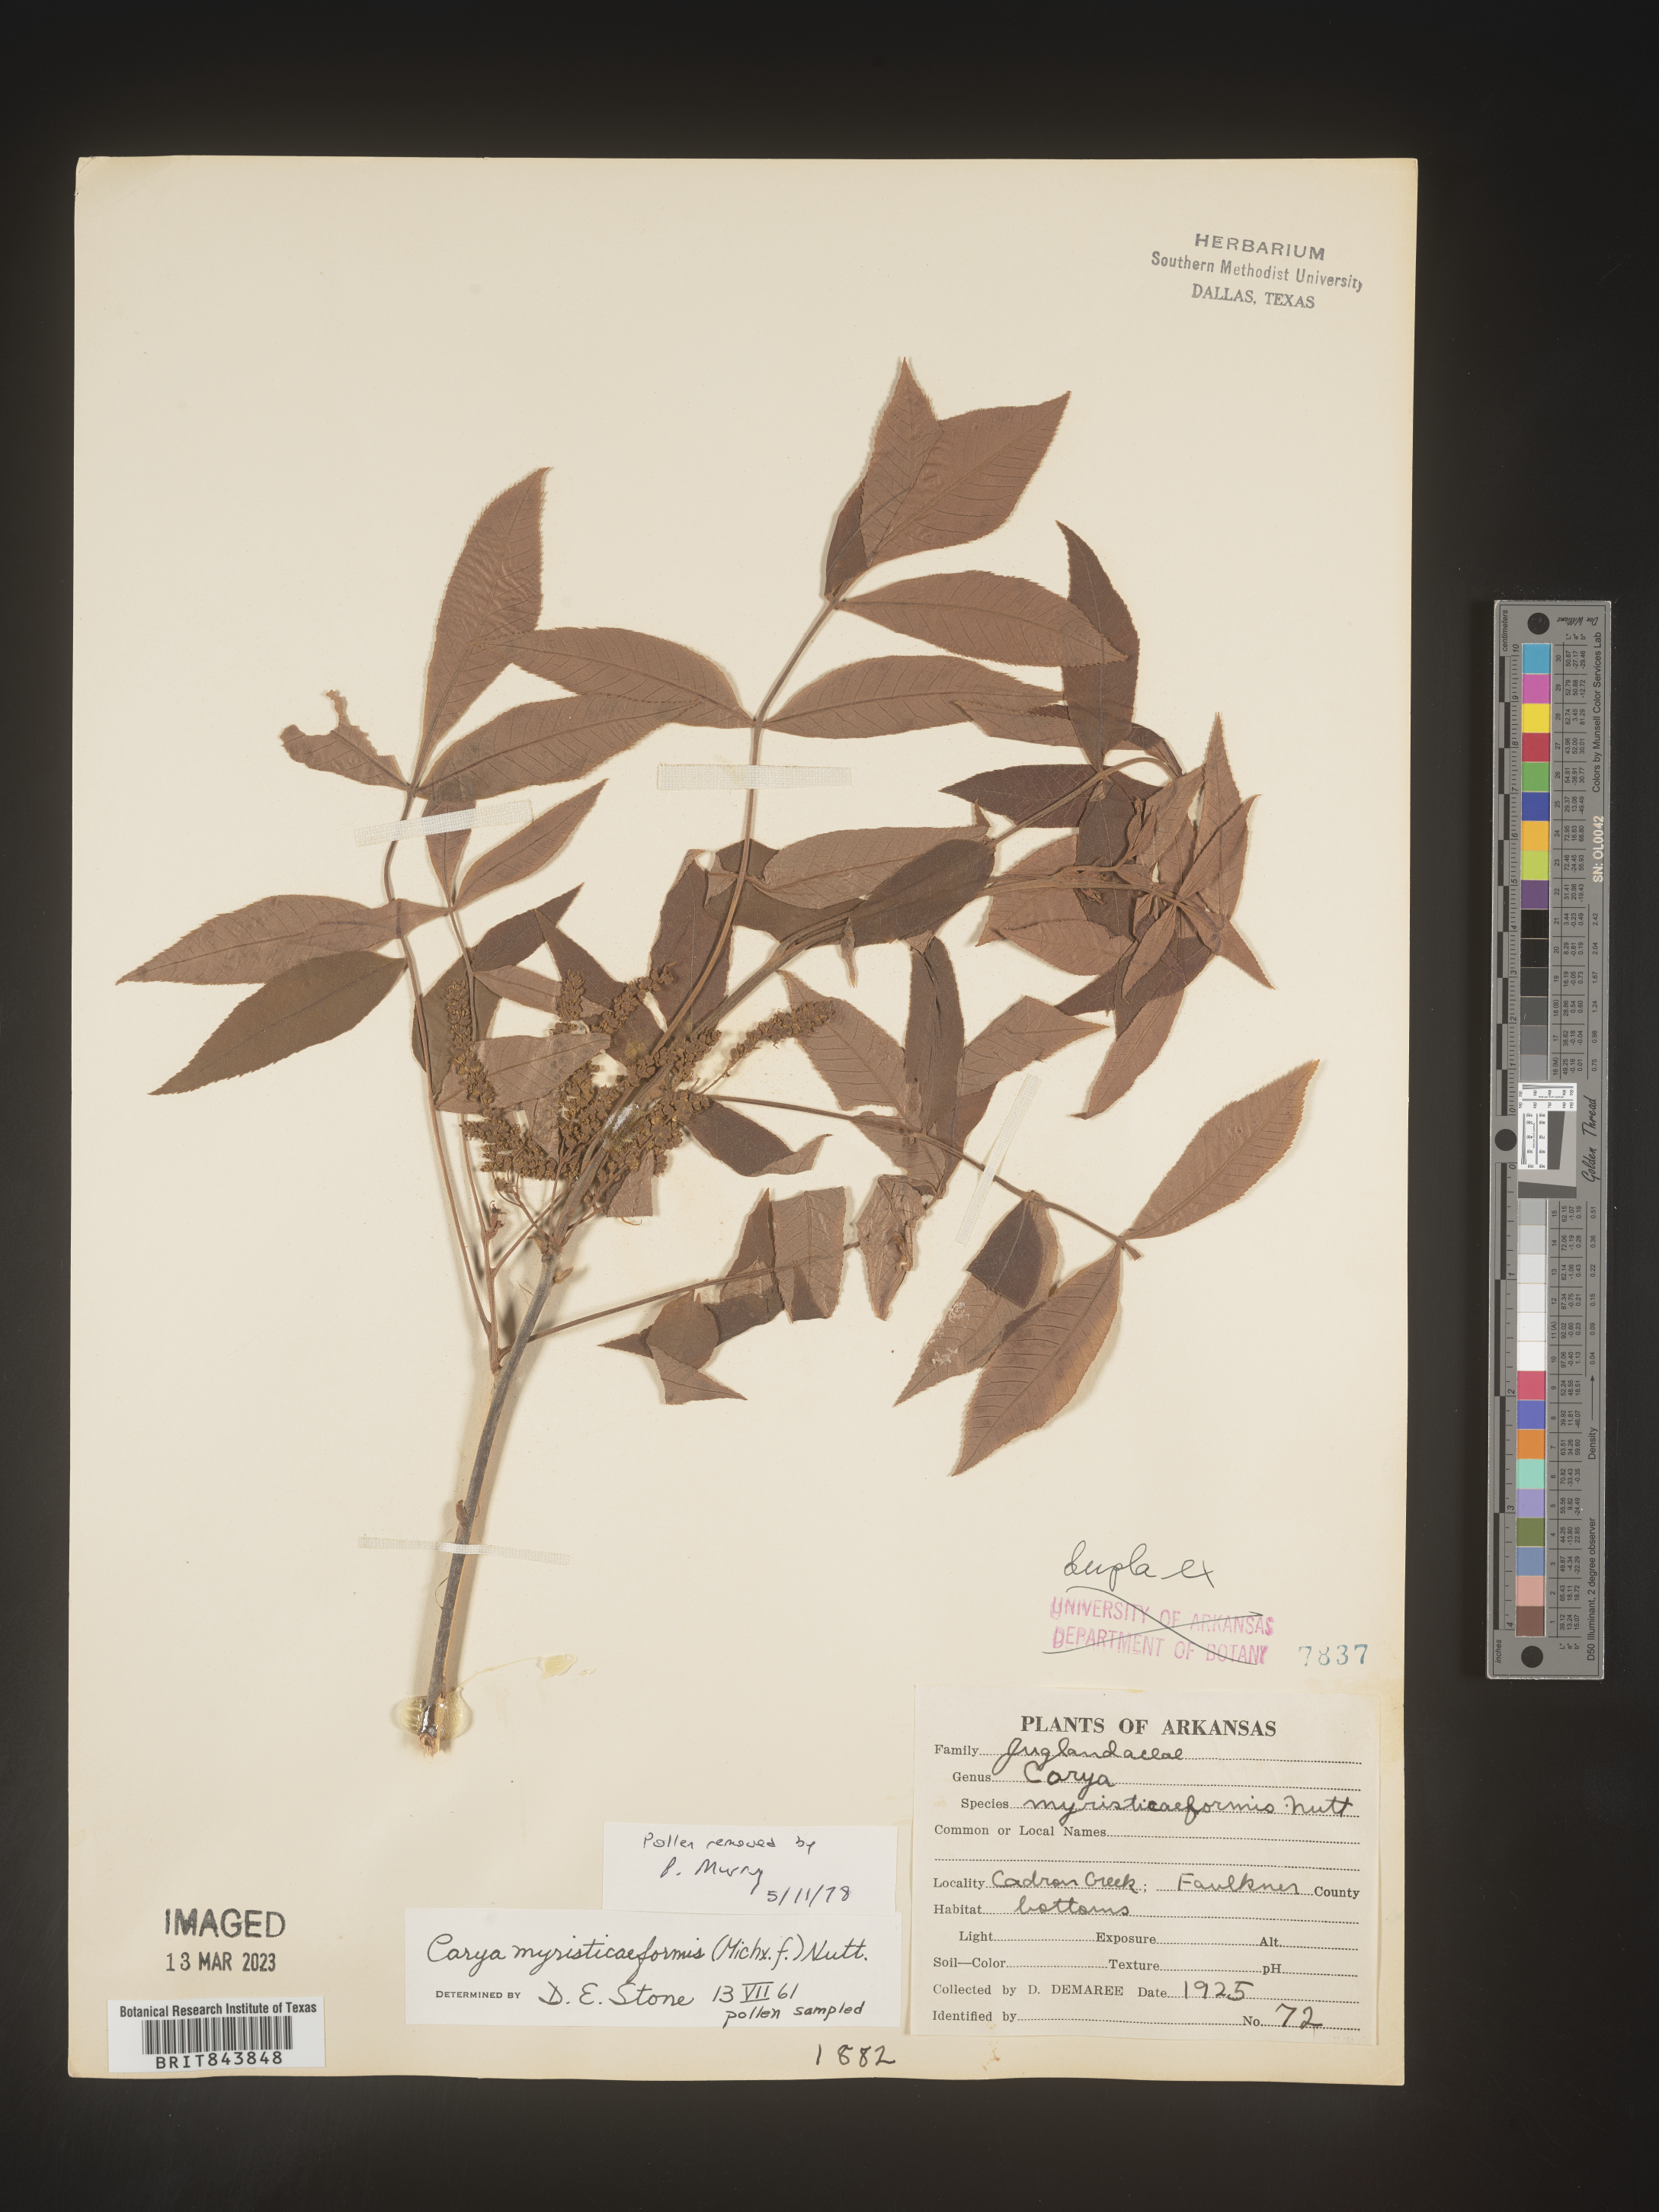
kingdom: Plantae
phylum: Tracheophyta
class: Magnoliopsida
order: Fagales
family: Juglandaceae
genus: Carya
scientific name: Carya myristiciformis
